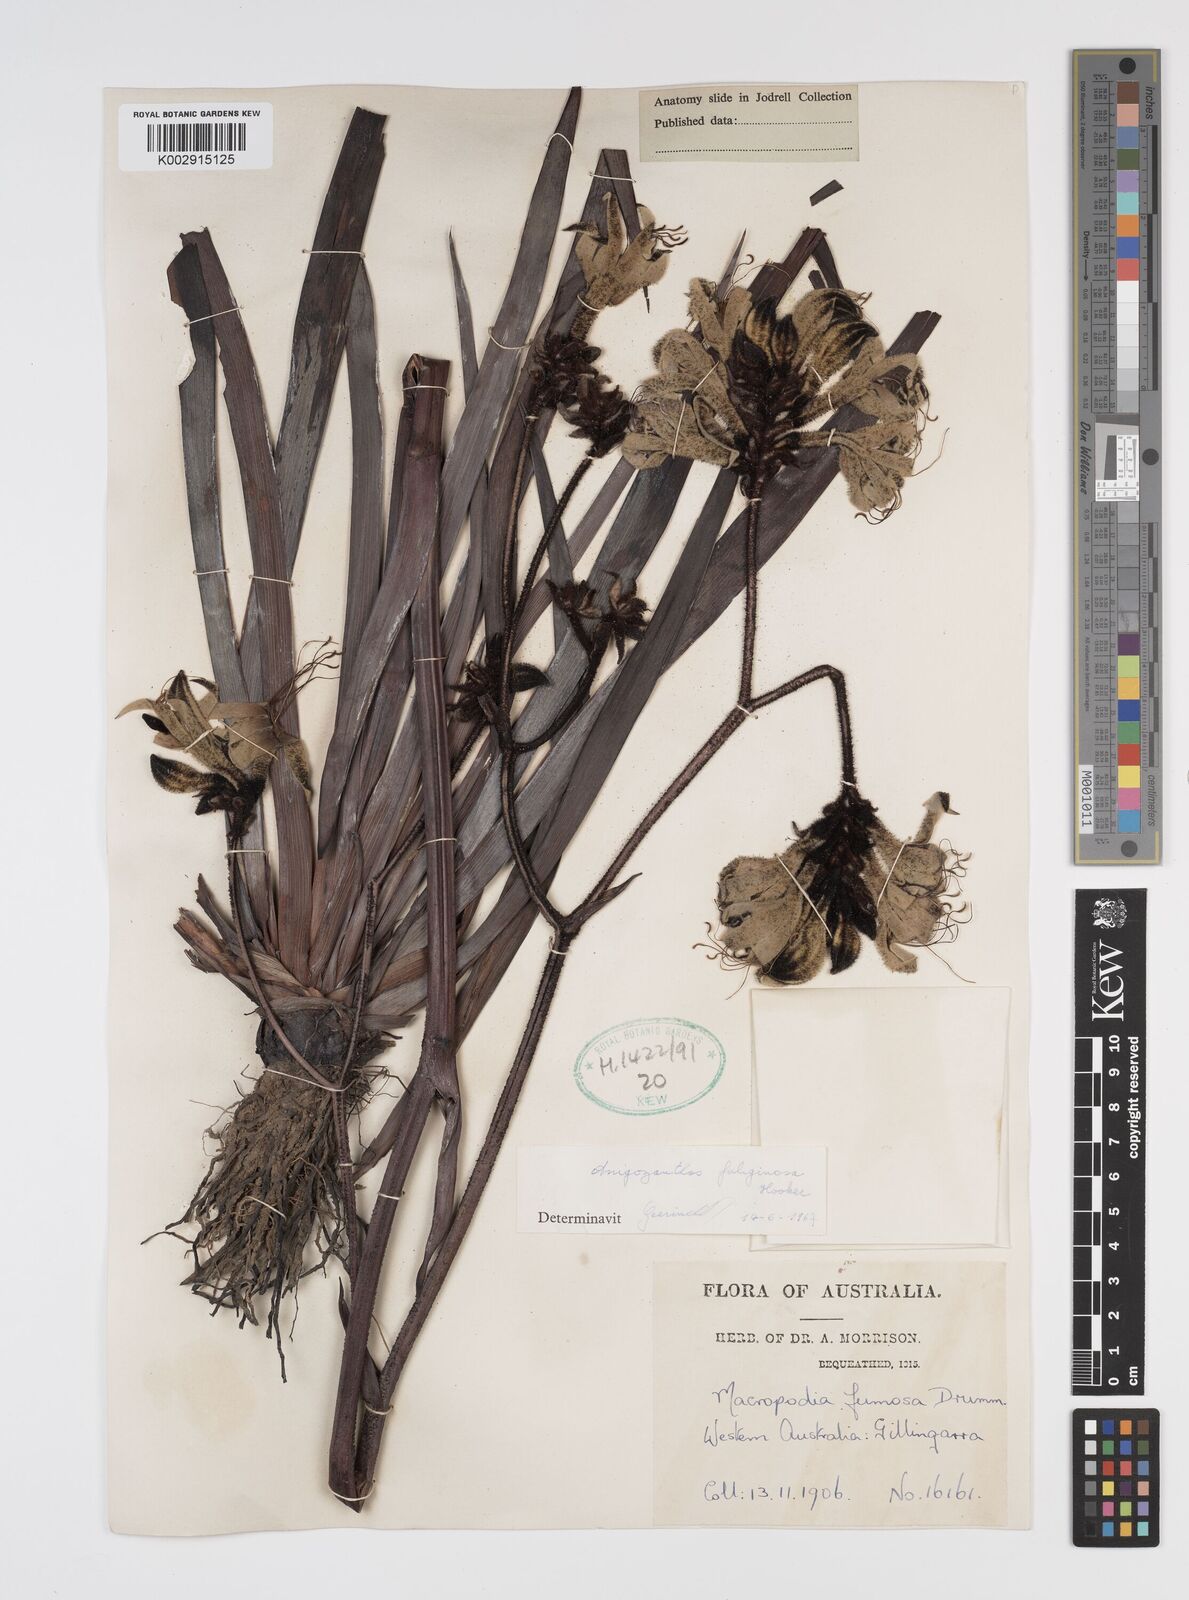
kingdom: Plantae
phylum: Tracheophyta
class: Liliopsida
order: Commelinales
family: Haemodoraceae
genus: Macropidia
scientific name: Macropidia fuliginosa
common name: Black kangaroo-paw
